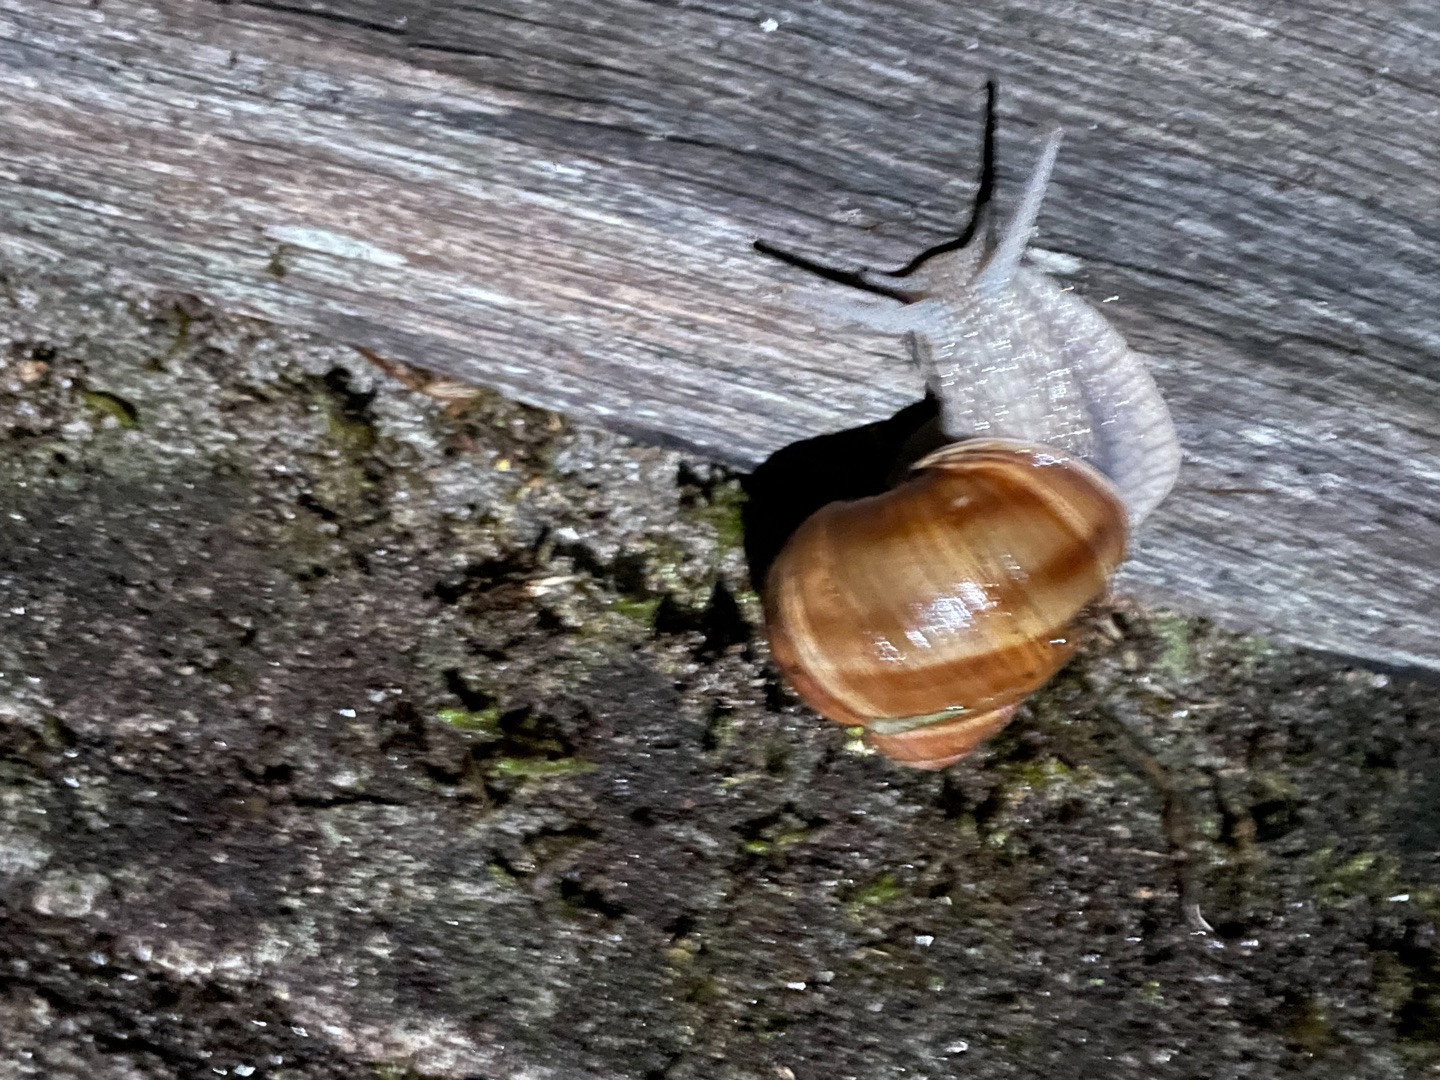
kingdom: Animalia
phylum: Mollusca
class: Gastropoda
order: Stylommatophora
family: Helicidae
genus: Helix
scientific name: Helix pomatia
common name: Vinbjergsnegl
